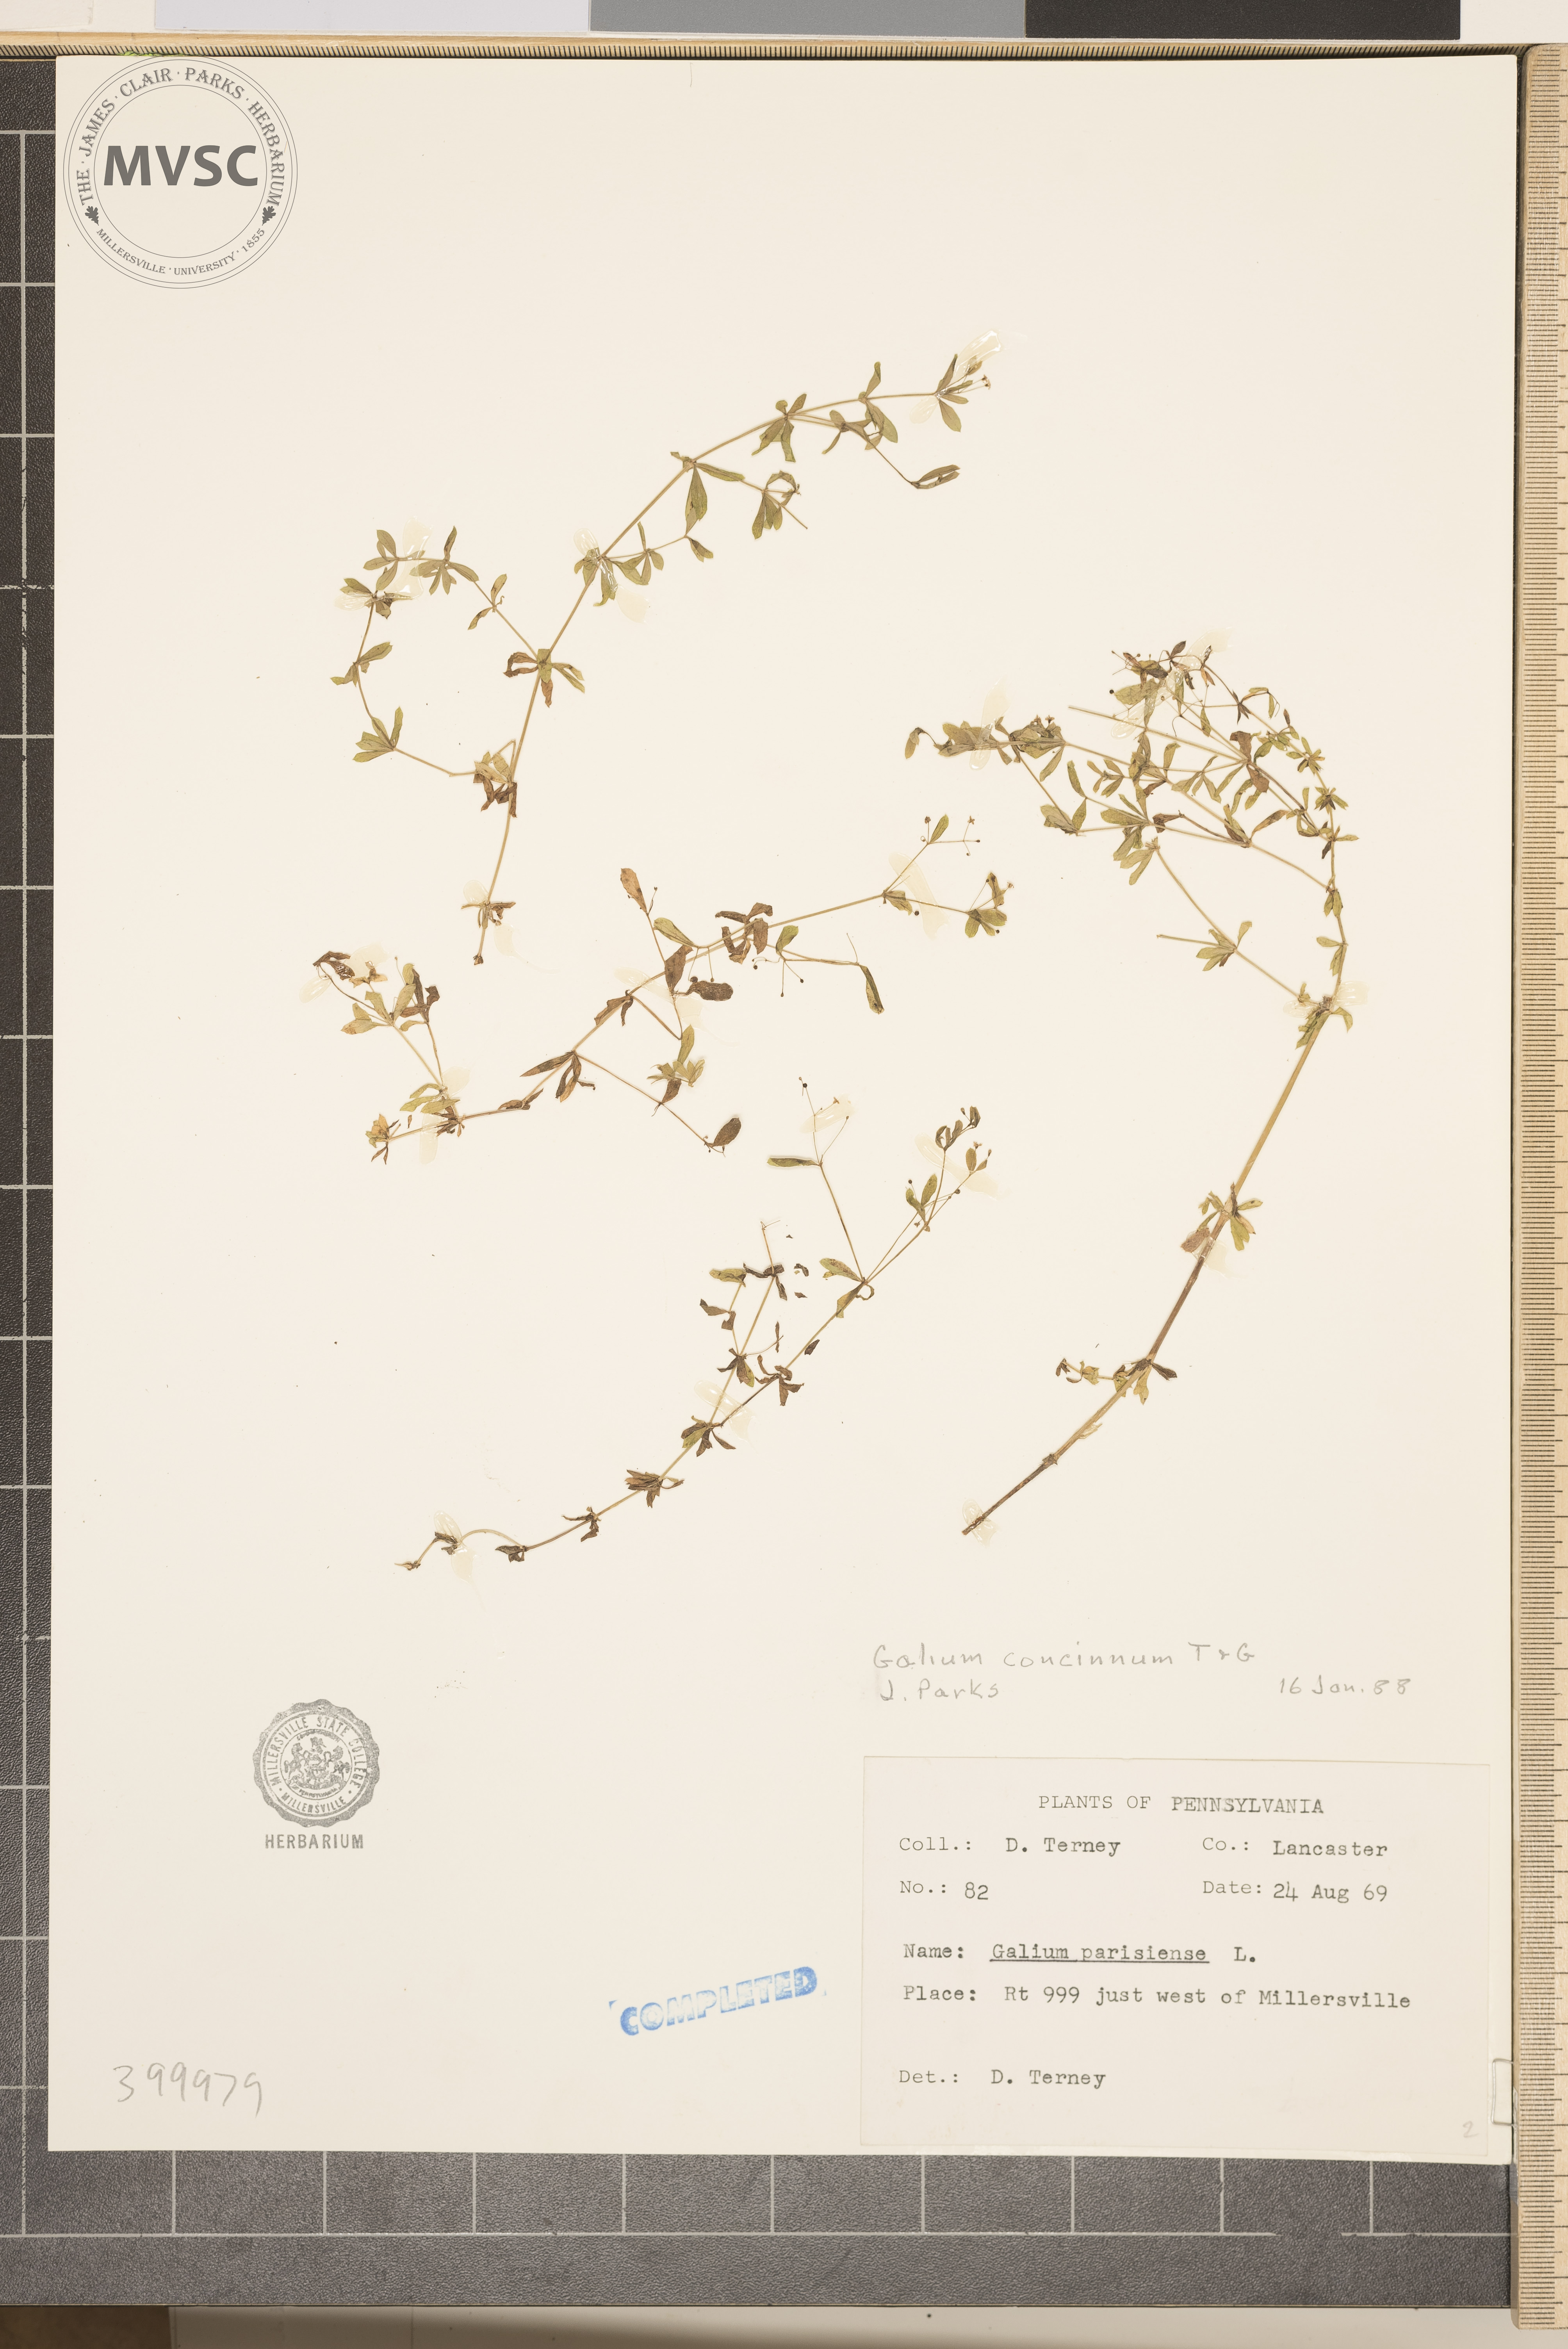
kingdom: Plantae
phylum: Tracheophyta
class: Magnoliopsida
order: Gentianales
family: Rubiaceae
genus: Galium
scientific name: Galium concinnum
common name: bedstraw
